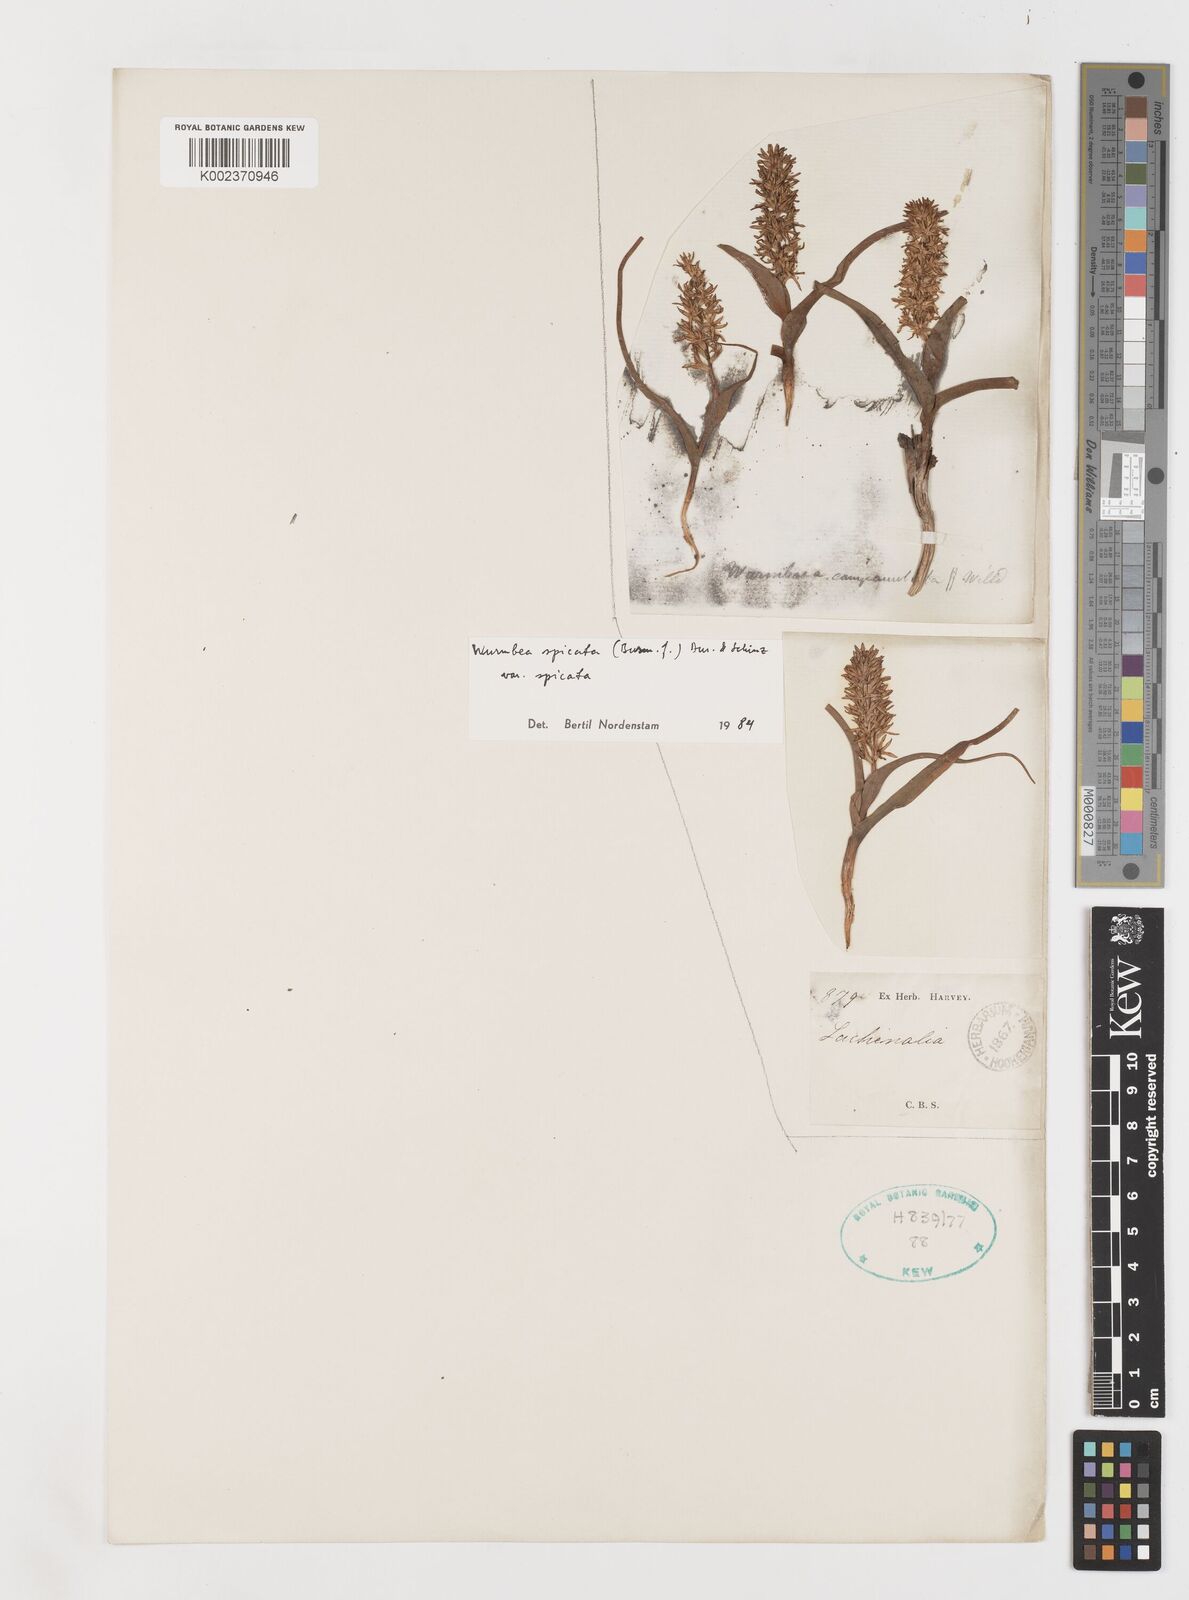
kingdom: Plantae
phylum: Tracheophyta
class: Liliopsida
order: Liliales
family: Colchicaceae
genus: Wurmbea
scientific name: Wurmbea spicata
